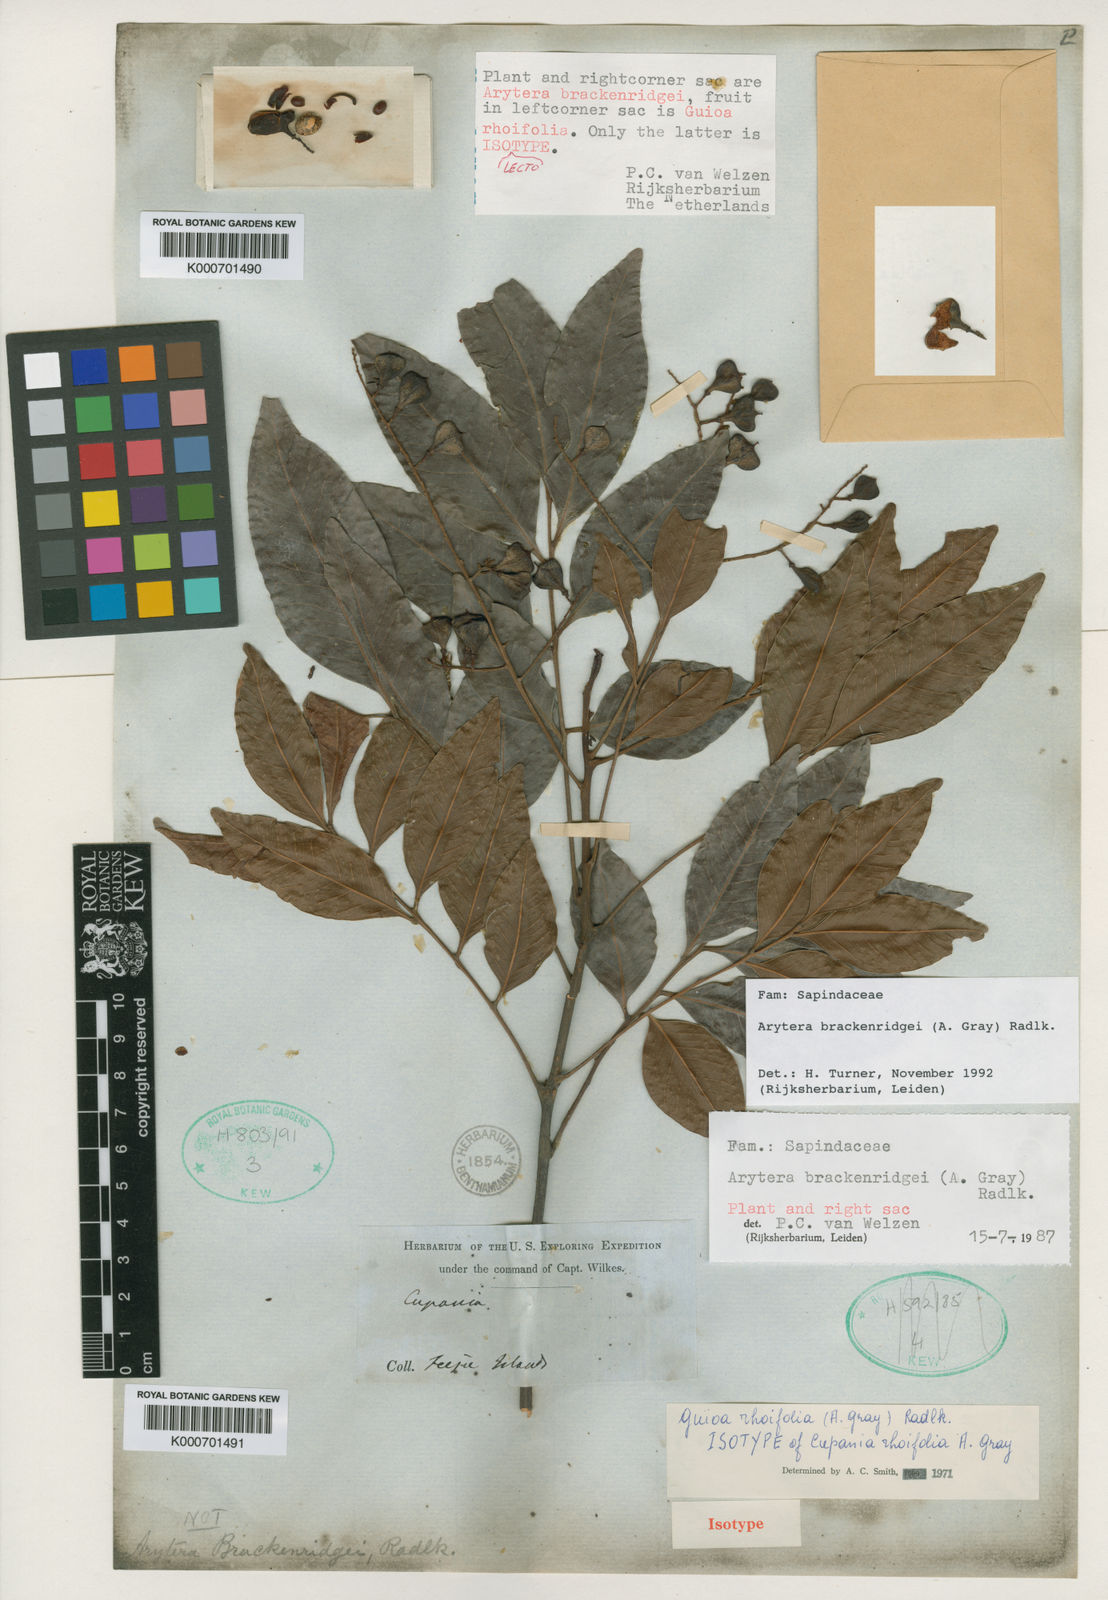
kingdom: Plantae
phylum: Tracheophyta
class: Magnoliopsida
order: Sapindales
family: Sapindaceae
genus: Lepidocupania
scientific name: Lepidocupania brackenridgei
